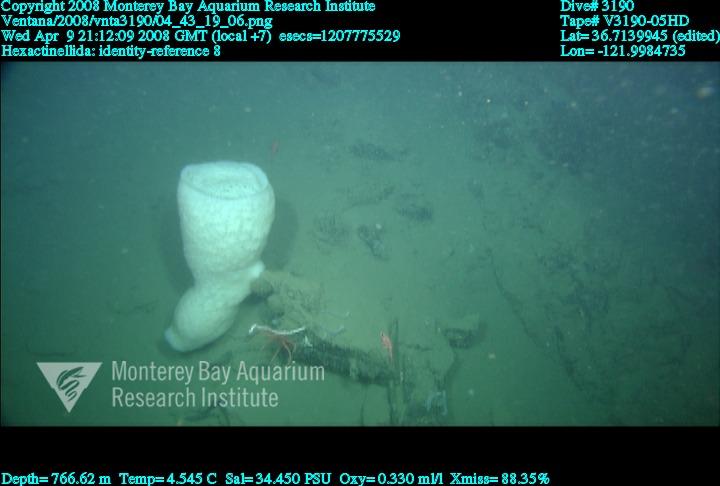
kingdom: Animalia
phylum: Porifera
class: Hexactinellida
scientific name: Hexactinellida
